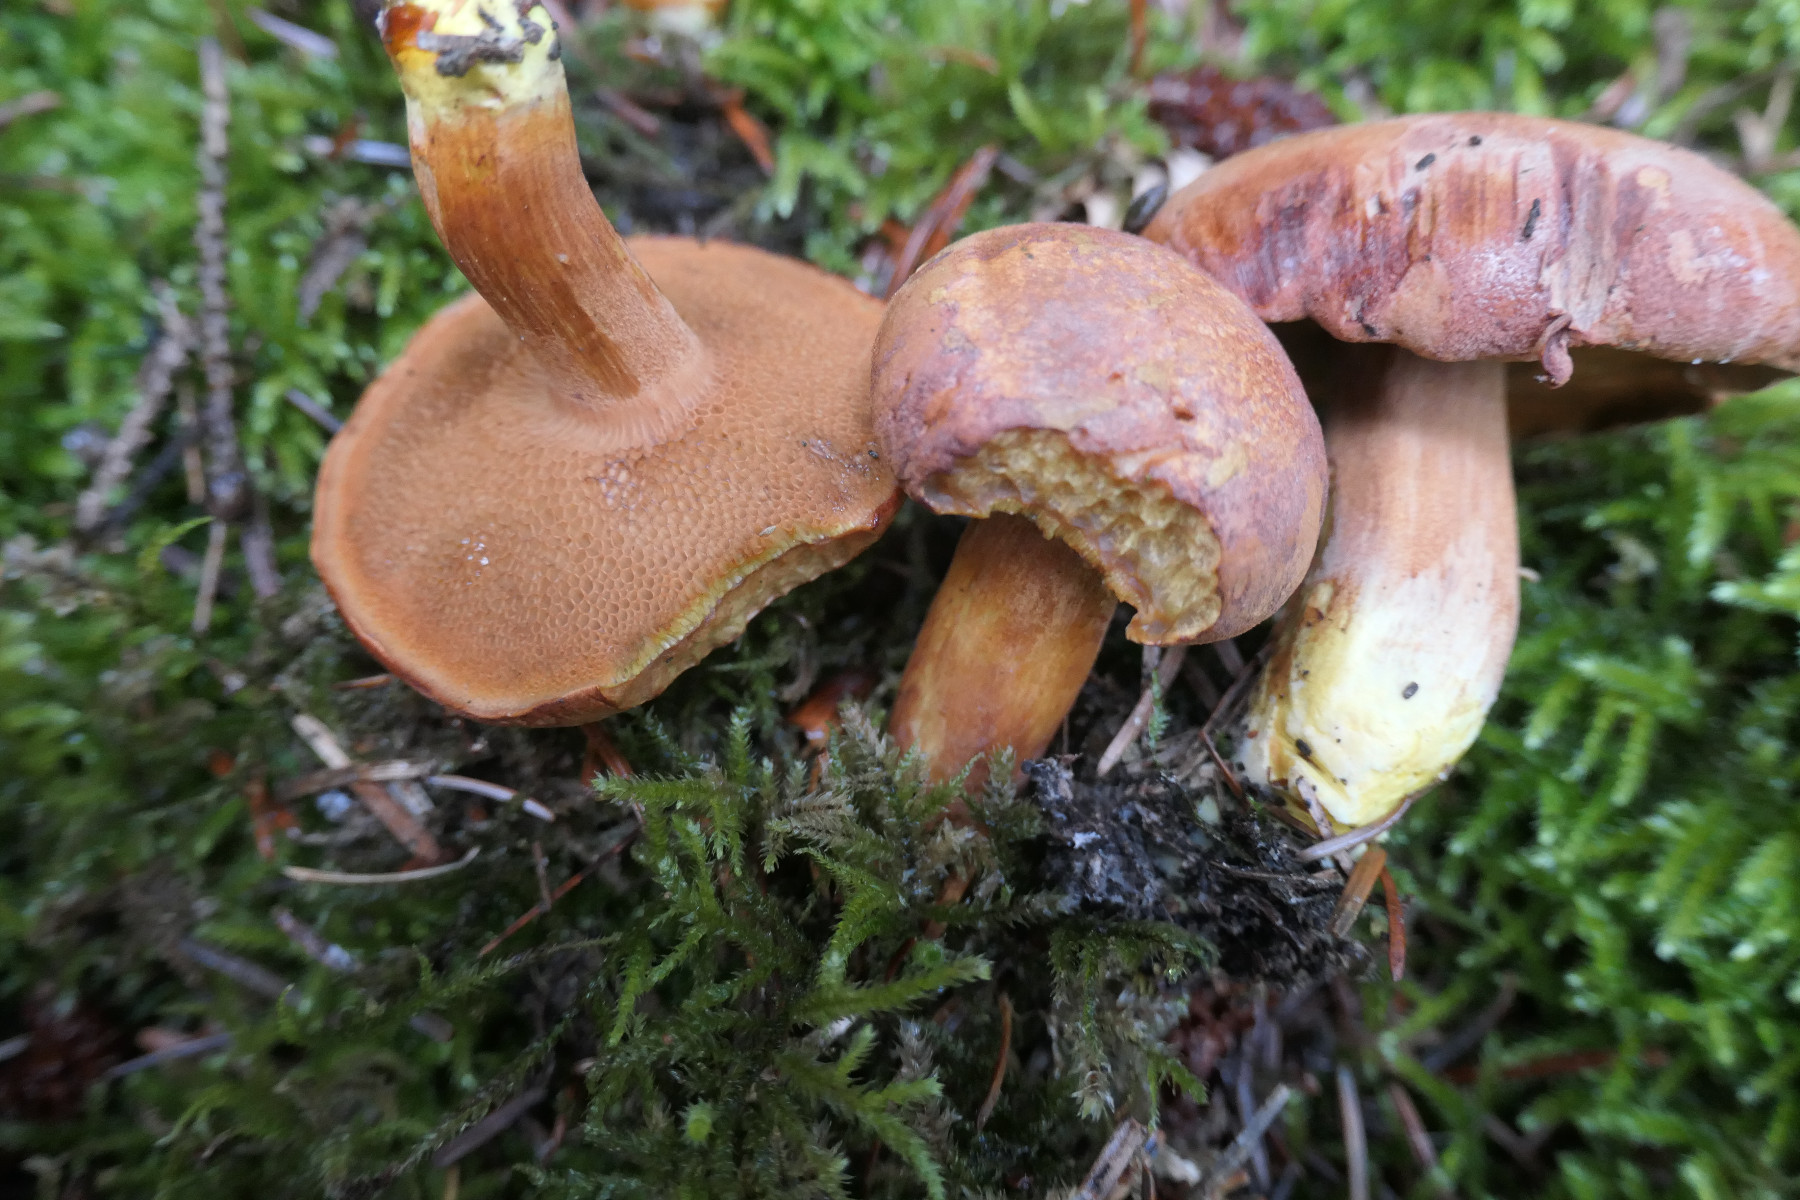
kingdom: Fungi
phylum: Basidiomycota
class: Agaricomycetes
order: Boletales
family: Boletaceae
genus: Chalciporus
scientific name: Chalciporus piperatus
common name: peberrørhat
